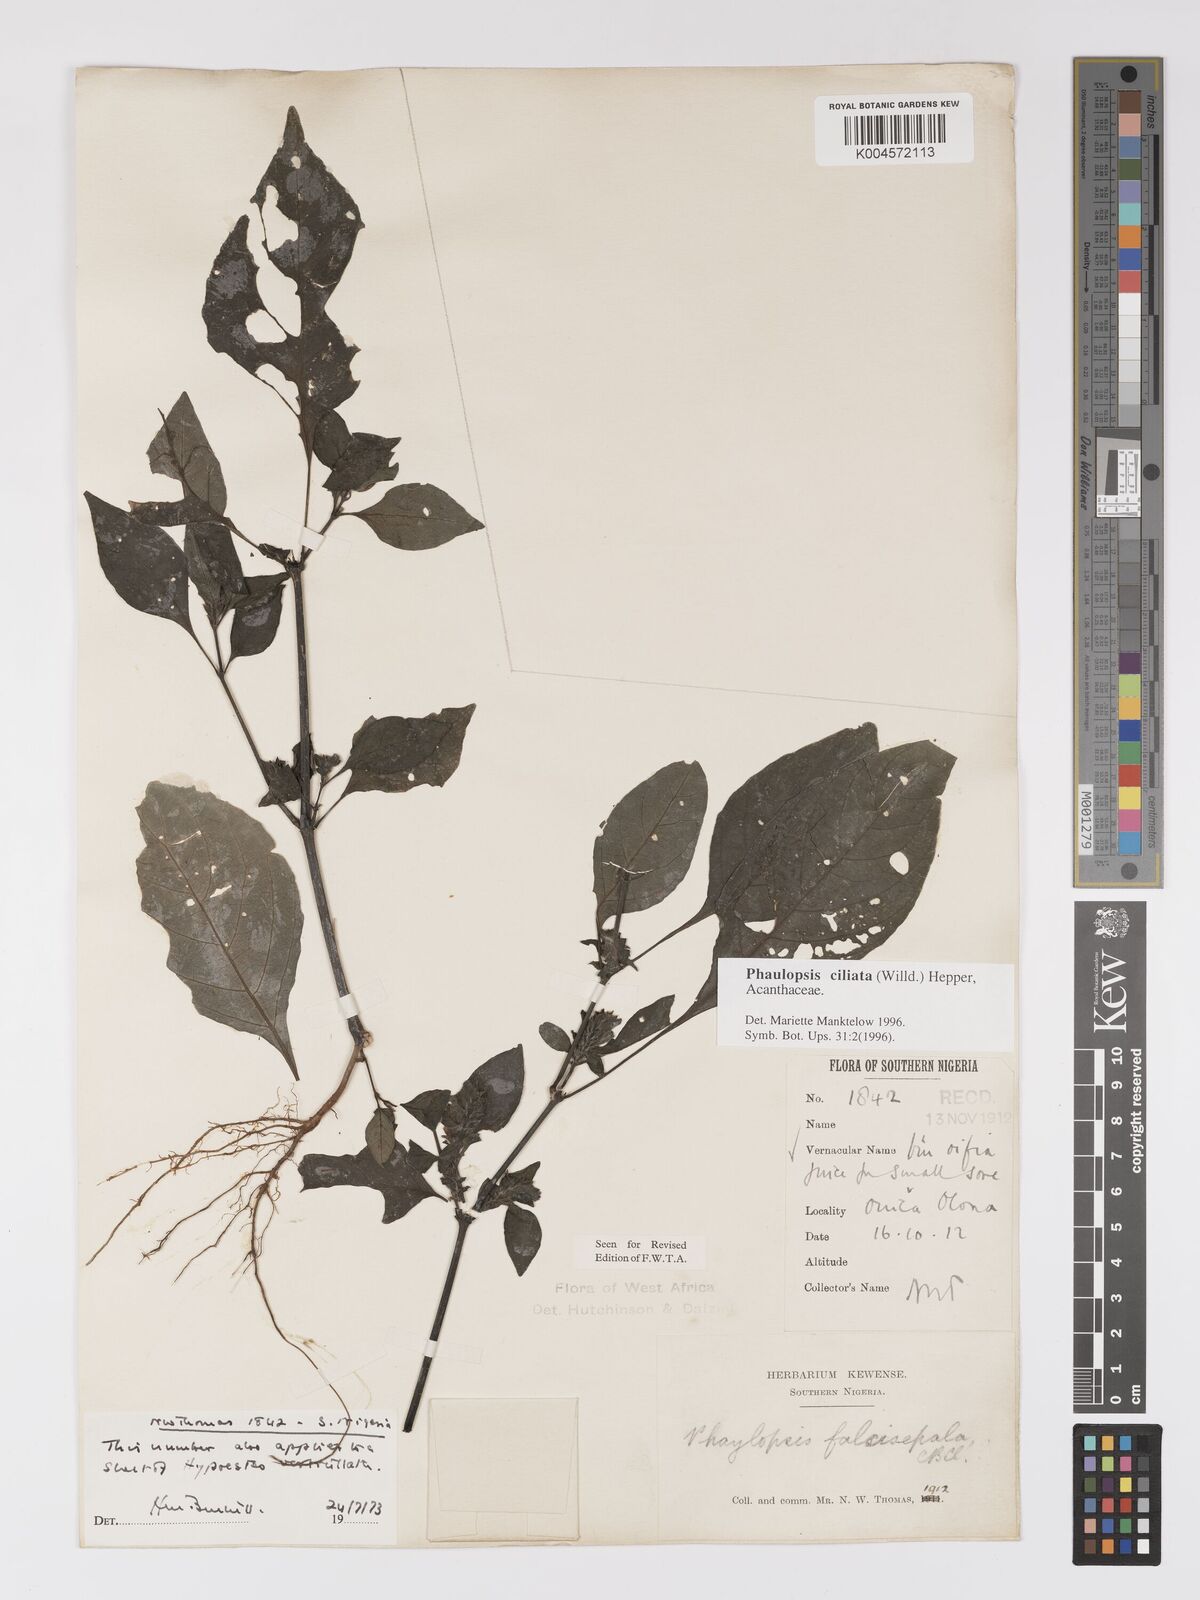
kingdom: Plantae
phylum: Tracheophyta
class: Magnoliopsida
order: Lamiales
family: Acanthaceae
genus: Phaulopsis
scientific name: Phaulopsis ciliata
